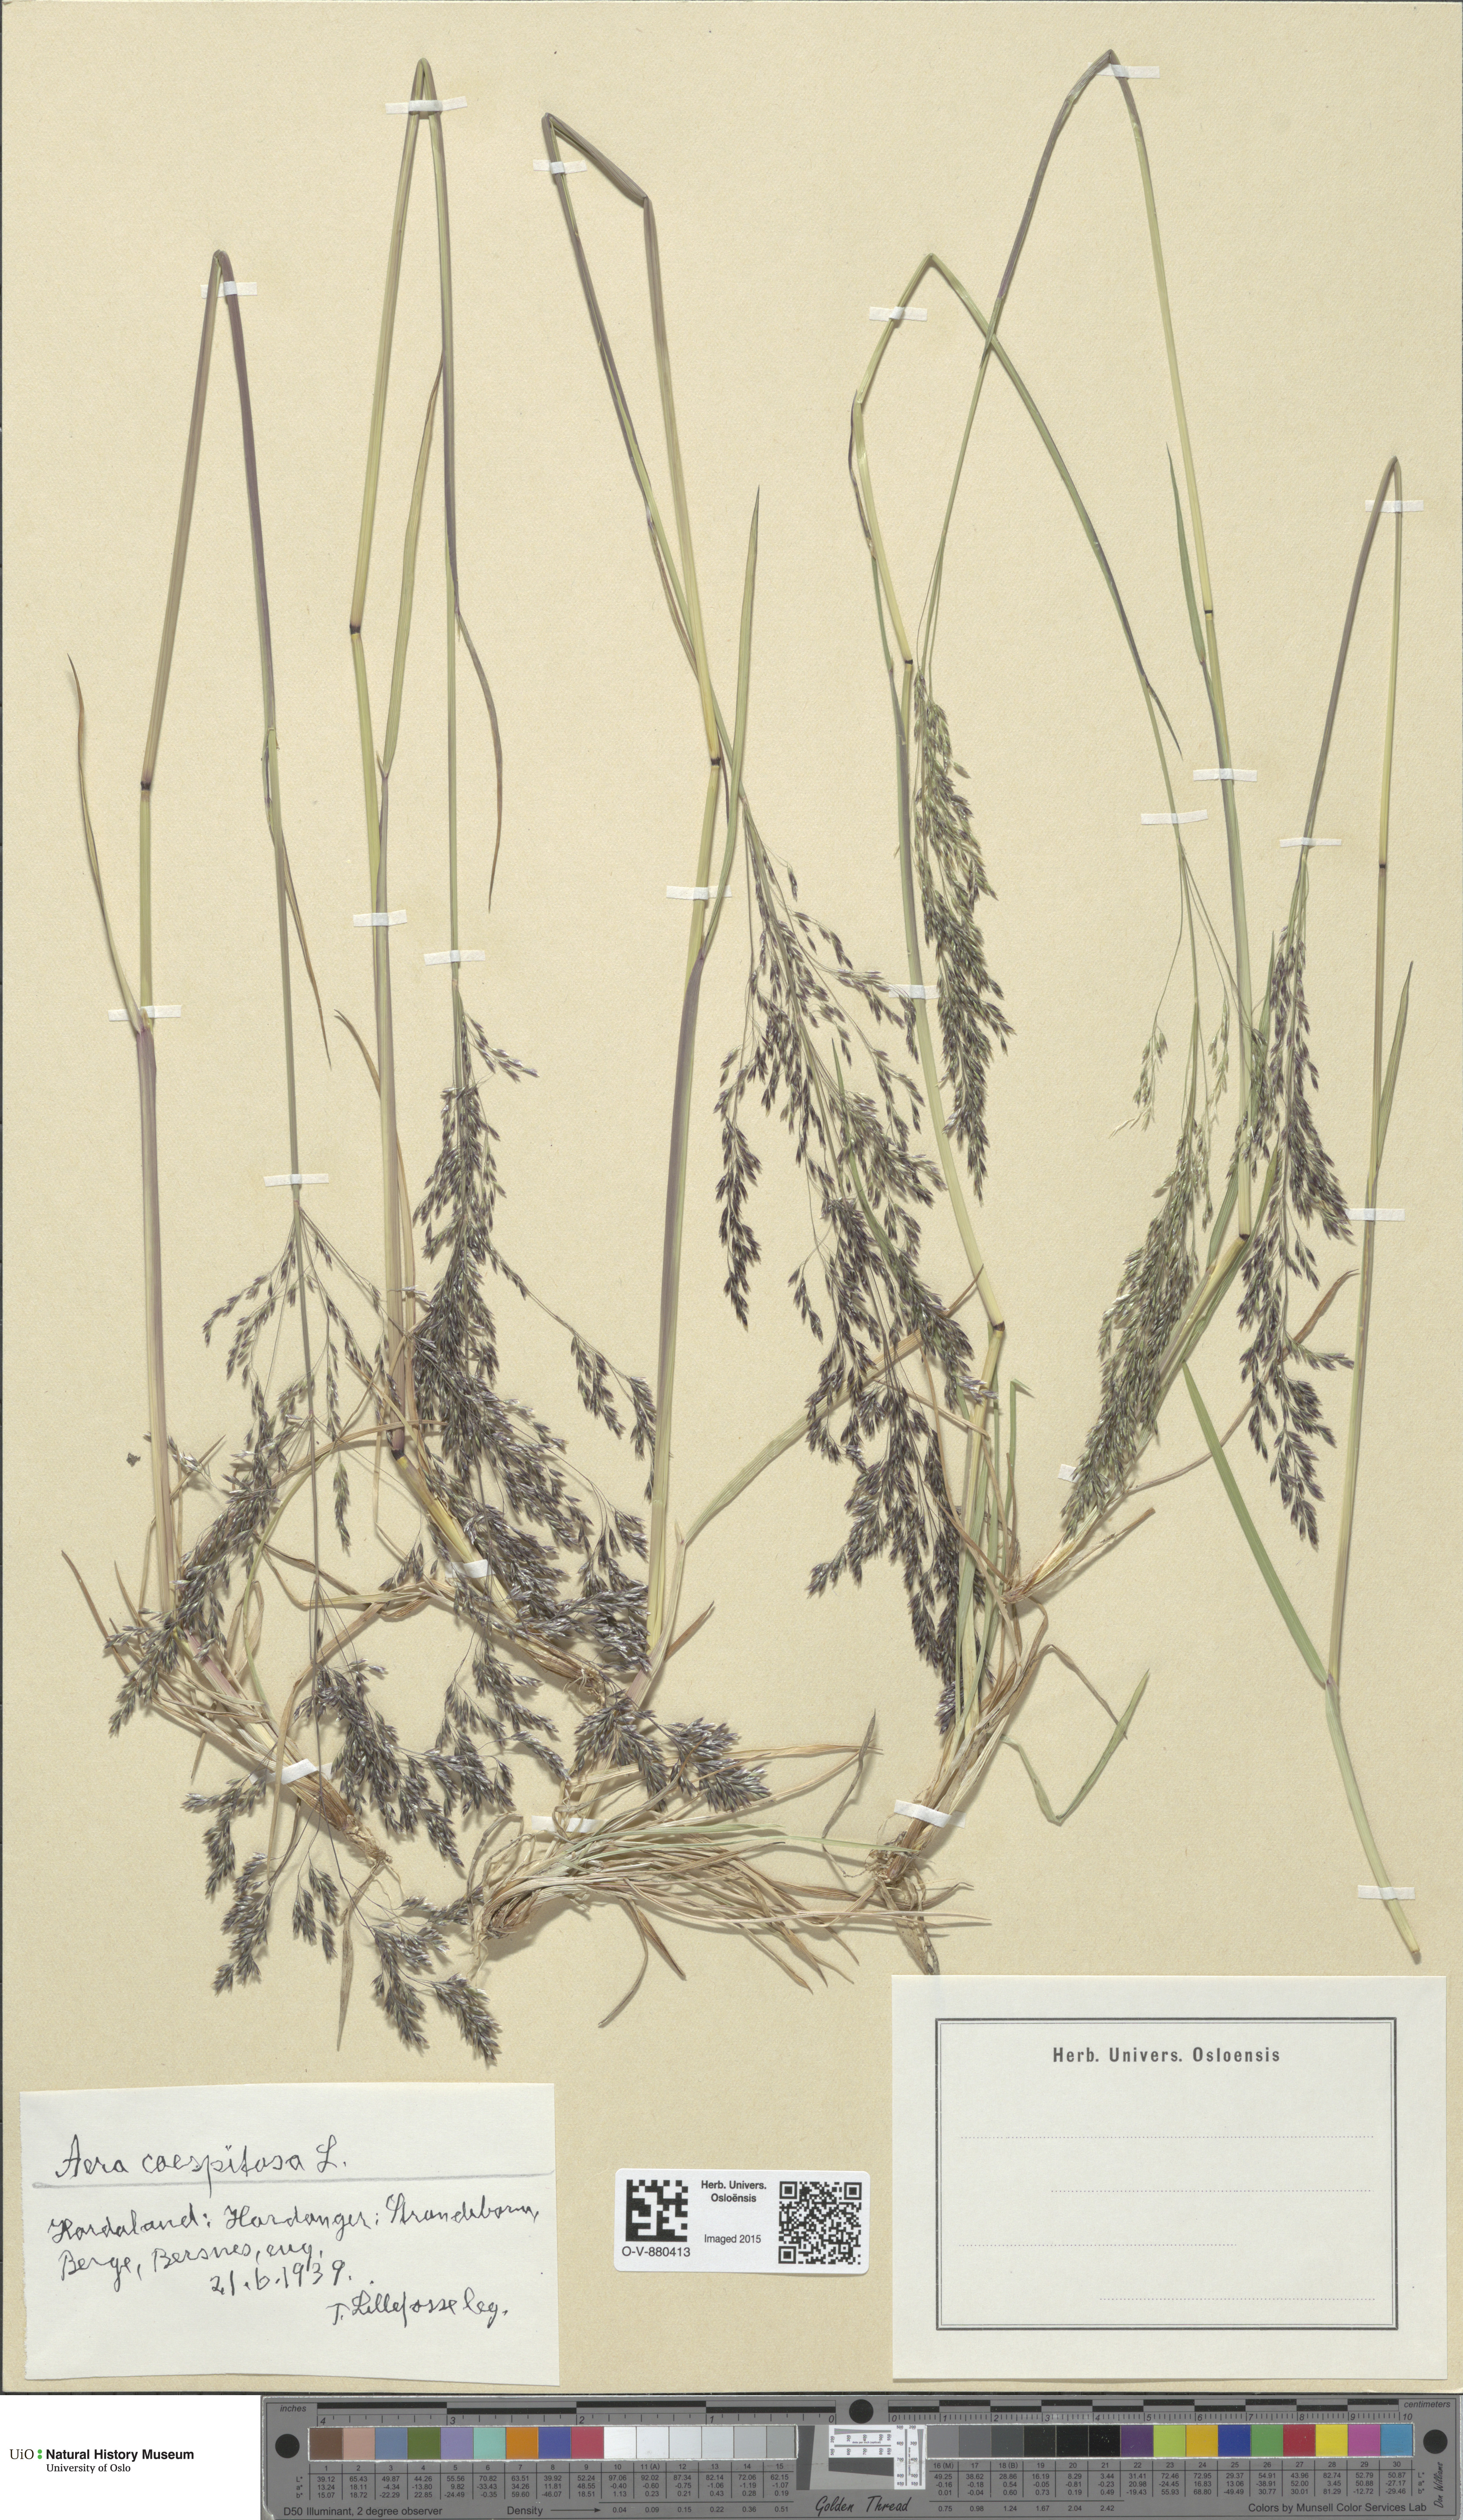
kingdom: Plantae
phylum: Tracheophyta
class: Liliopsida
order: Poales
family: Poaceae
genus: Deschampsia
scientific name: Deschampsia cespitosa
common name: Tufted hair-grass
